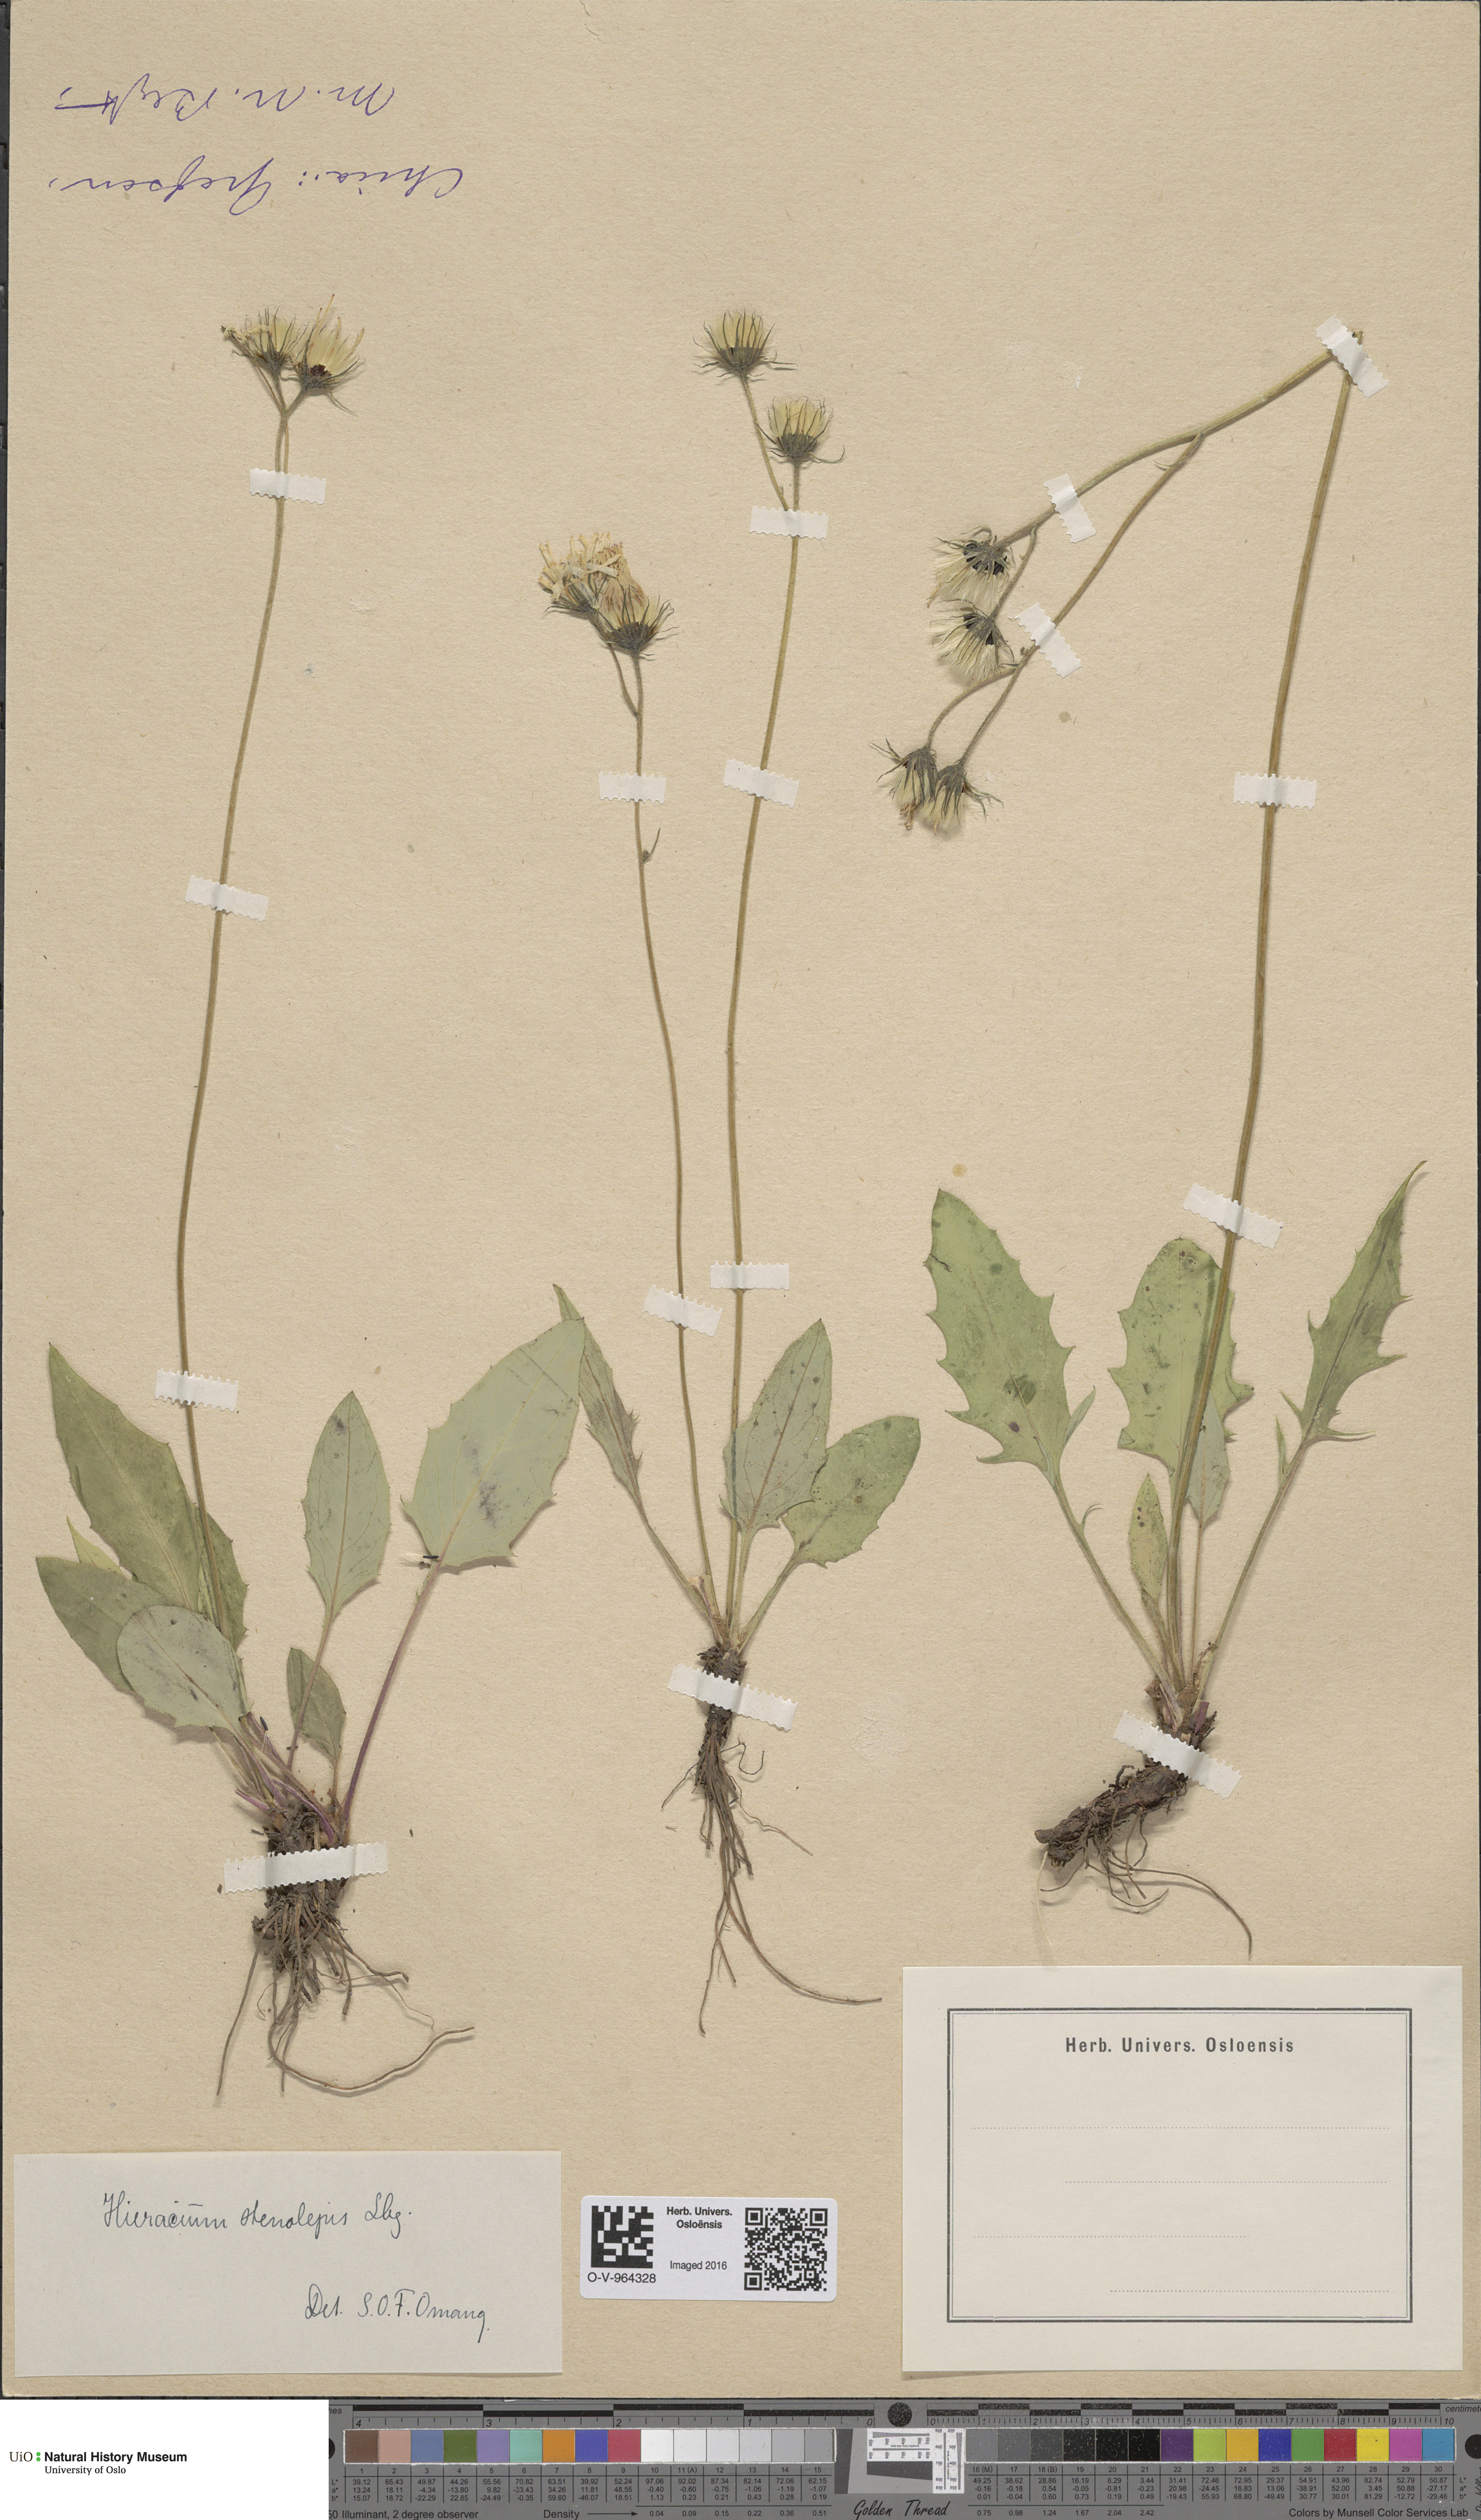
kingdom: Plantae
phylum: Tracheophyta
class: Magnoliopsida
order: Asterales
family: Asteraceae
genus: Hieracium
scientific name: Hieracium bifidum
